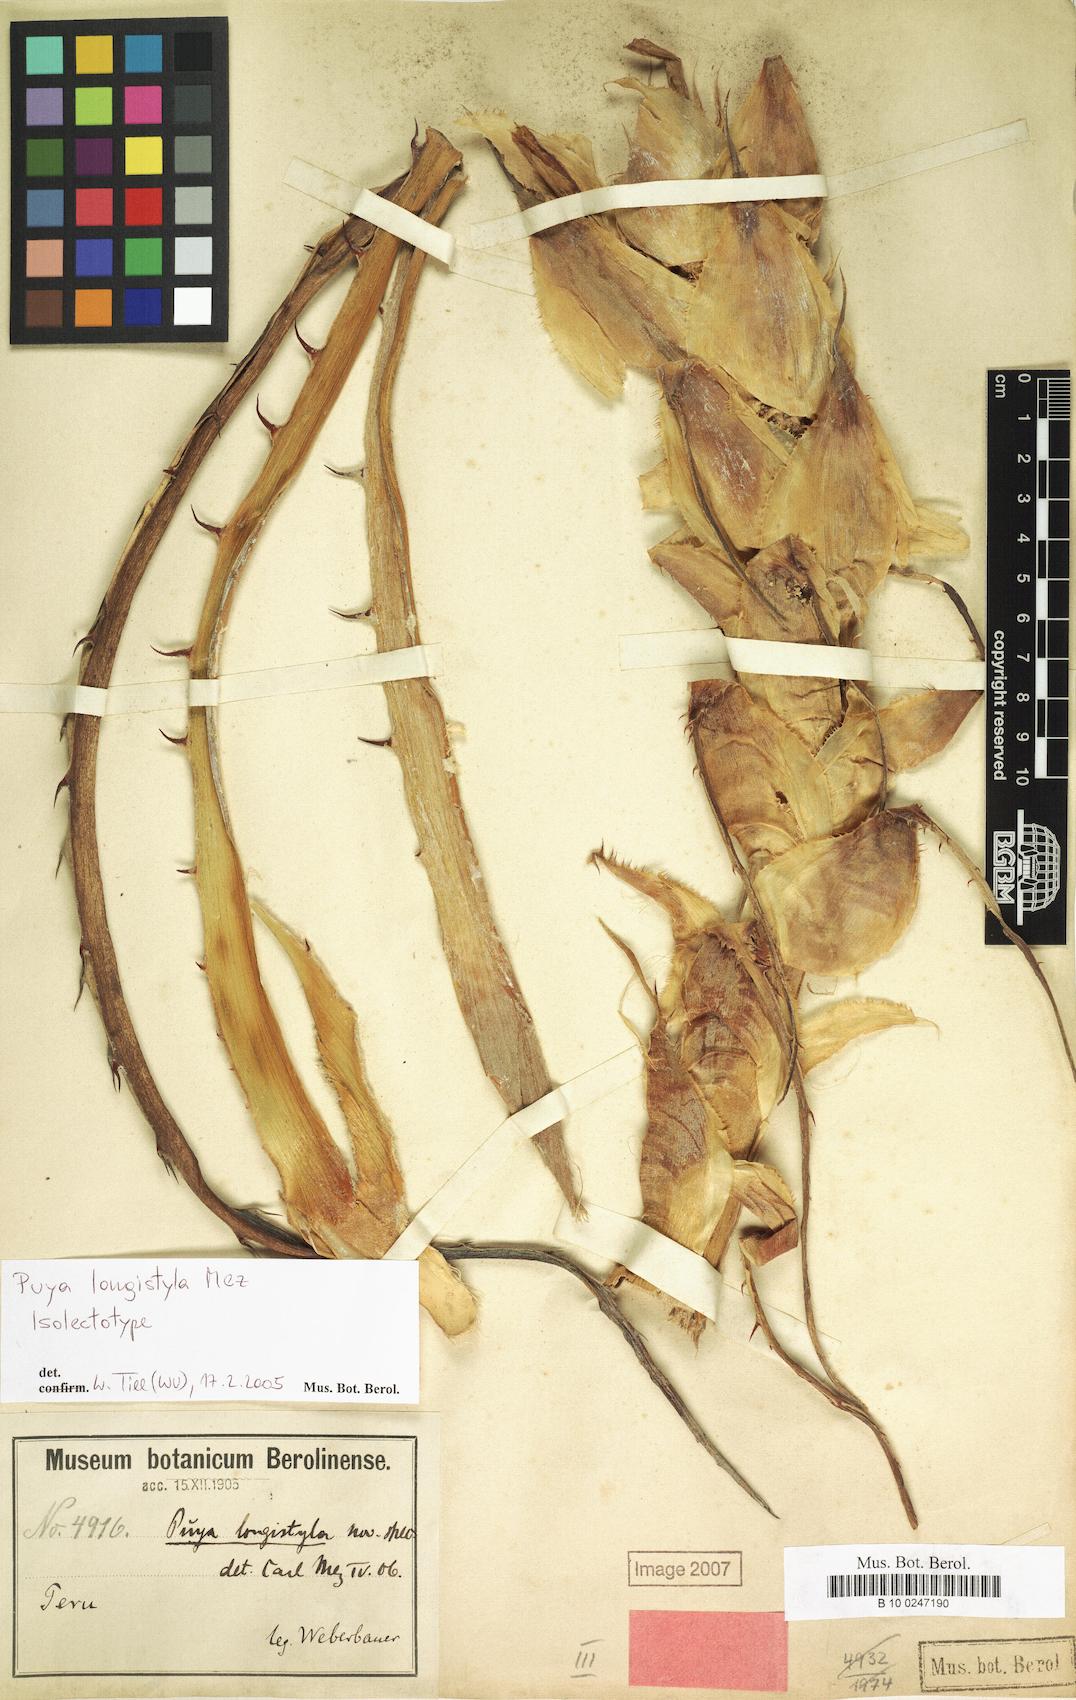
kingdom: Plantae
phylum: Tracheophyta
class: Liliopsida
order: Poales
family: Bromeliaceae
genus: Puya
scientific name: Puya longistyla
